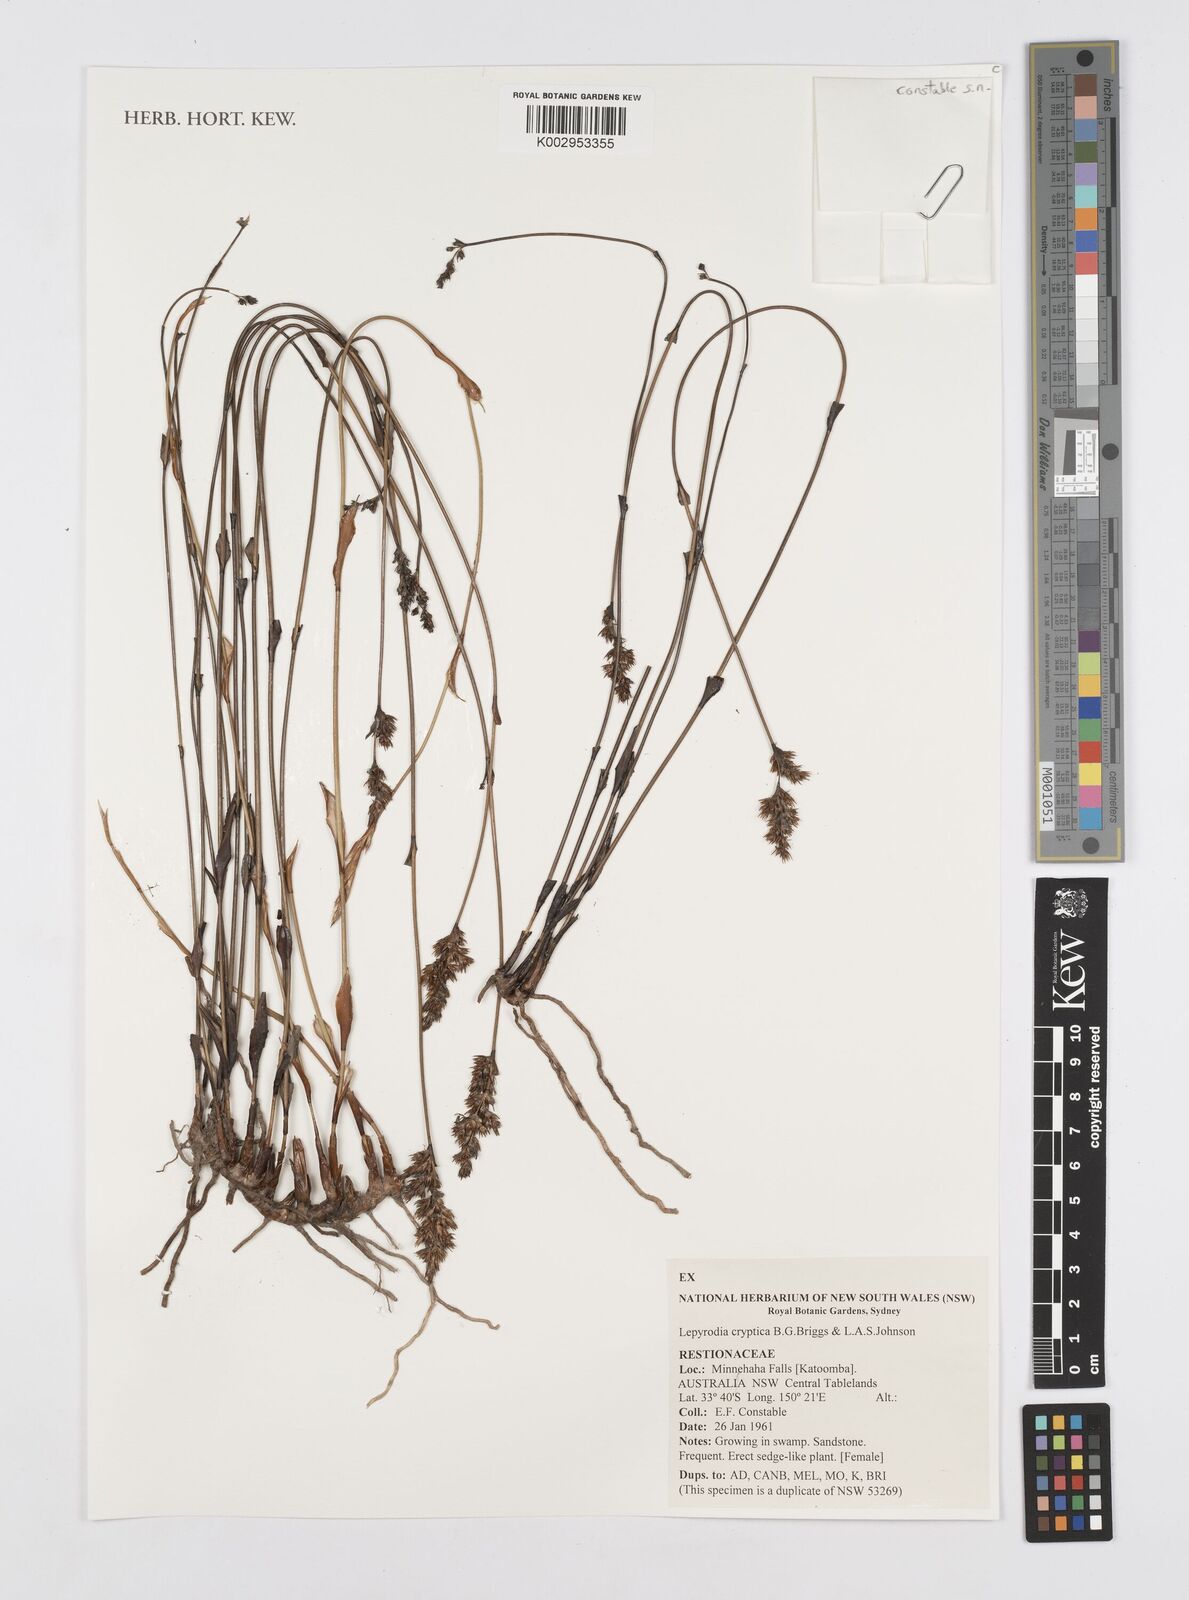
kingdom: Plantae
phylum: Tracheophyta
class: Liliopsida
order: Poales
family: Restionaceae
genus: Lepyrodia
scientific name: Lepyrodia cryptica
